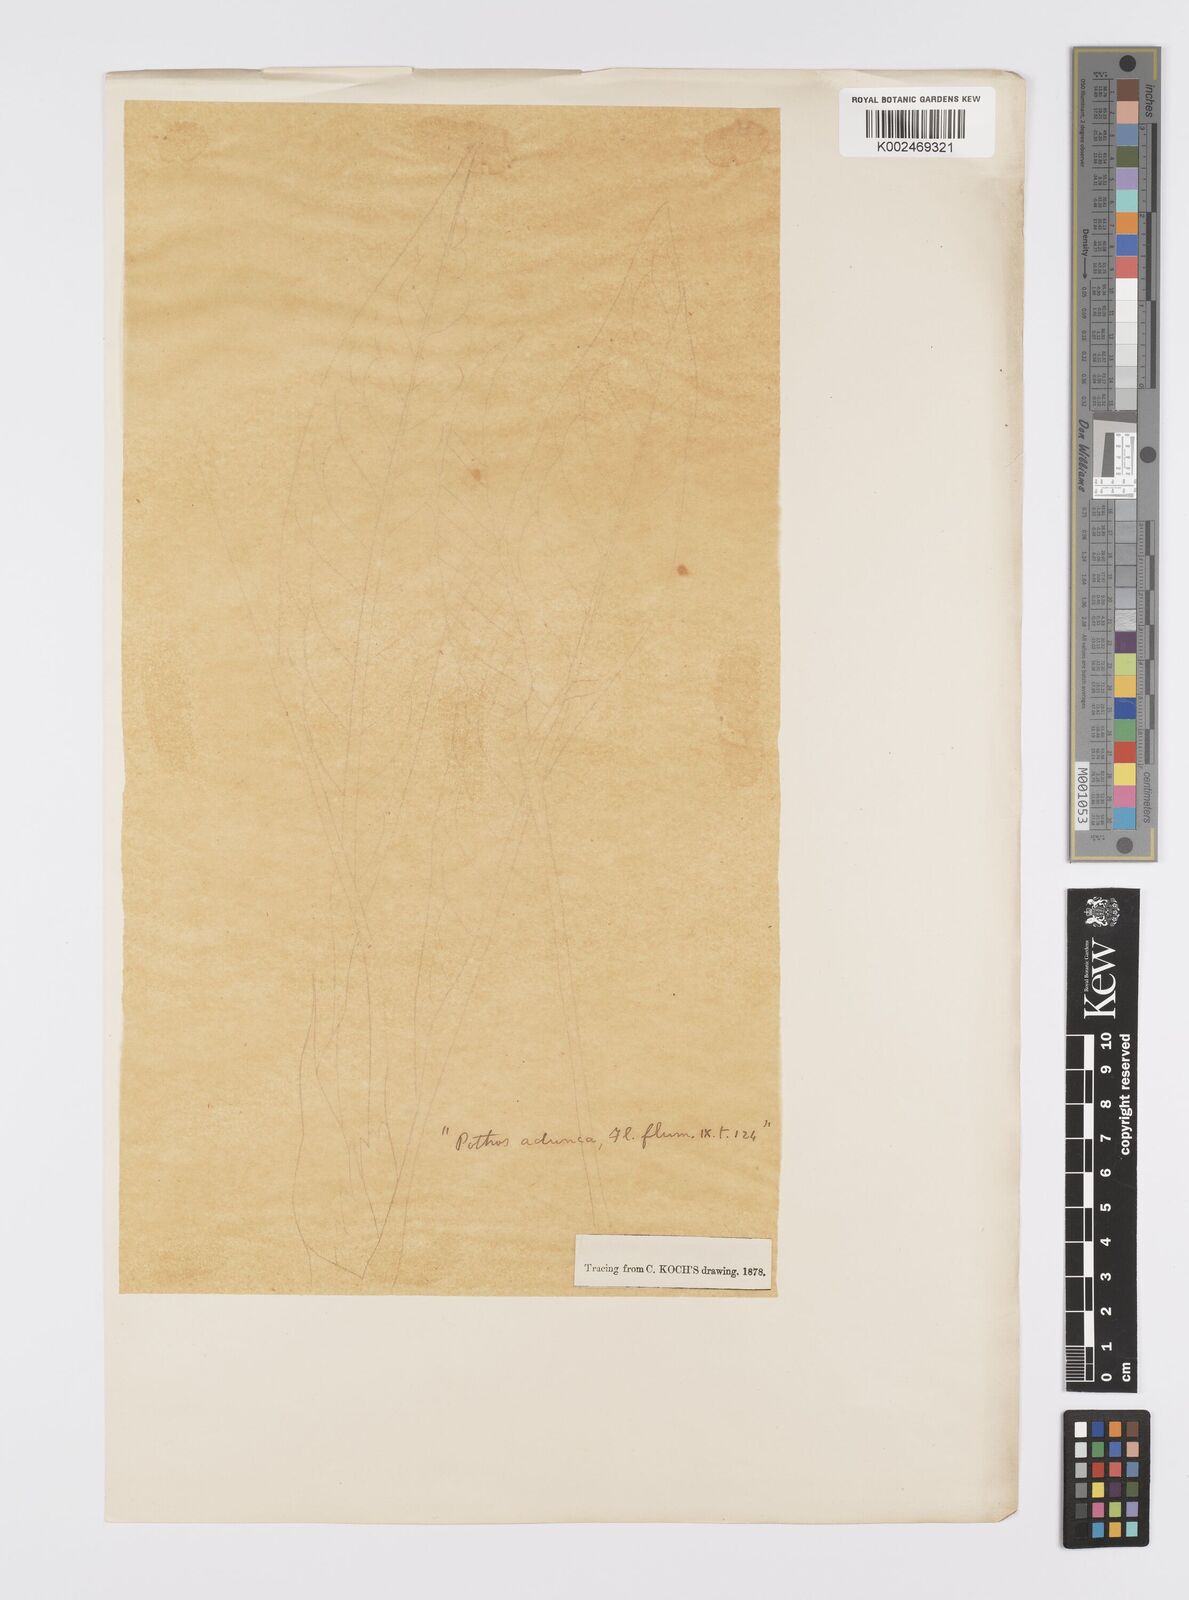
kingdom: Plantae
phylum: Tracheophyta
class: Liliopsida
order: Alismatales
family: Araceae
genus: Anthurium
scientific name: Anthurium aduncum
